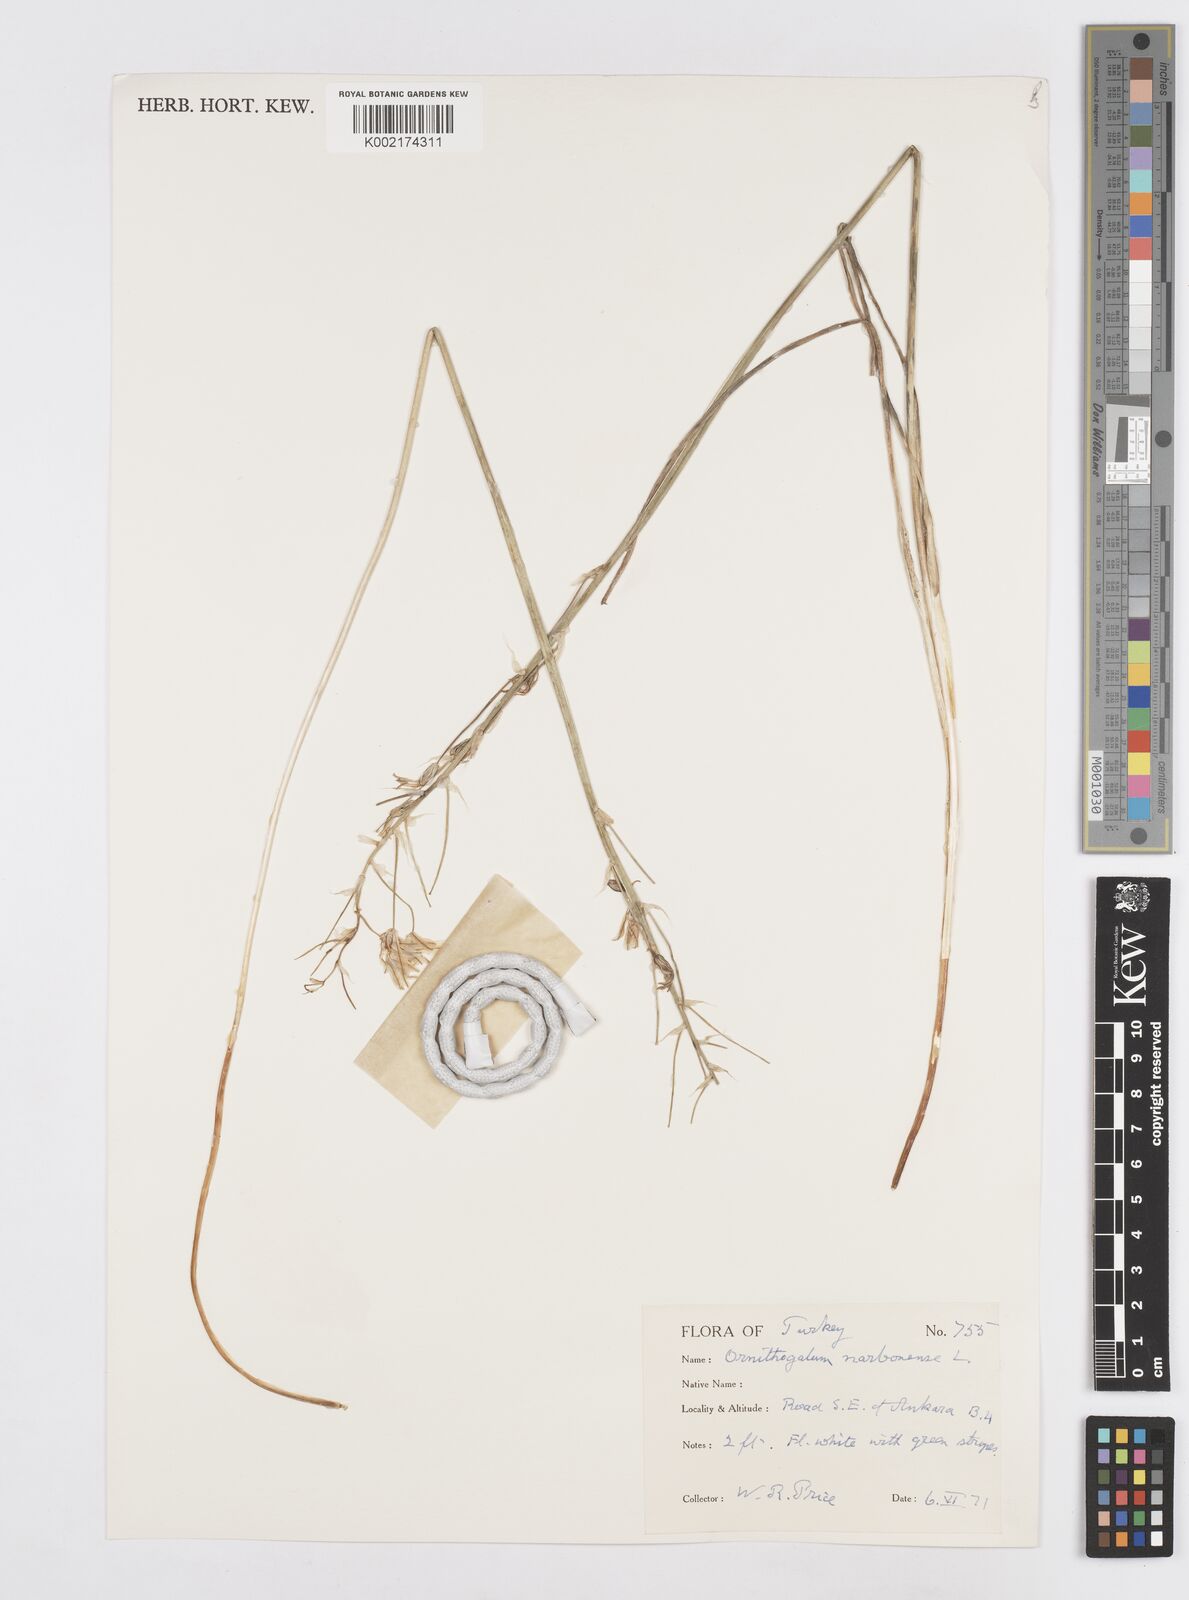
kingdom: Plantae
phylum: Tracheophyta
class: Liliopsida
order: Asparagales
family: Asparagaceae
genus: Ornithogalum
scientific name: Ornithogalum narbonense
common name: Bath-asparagus
